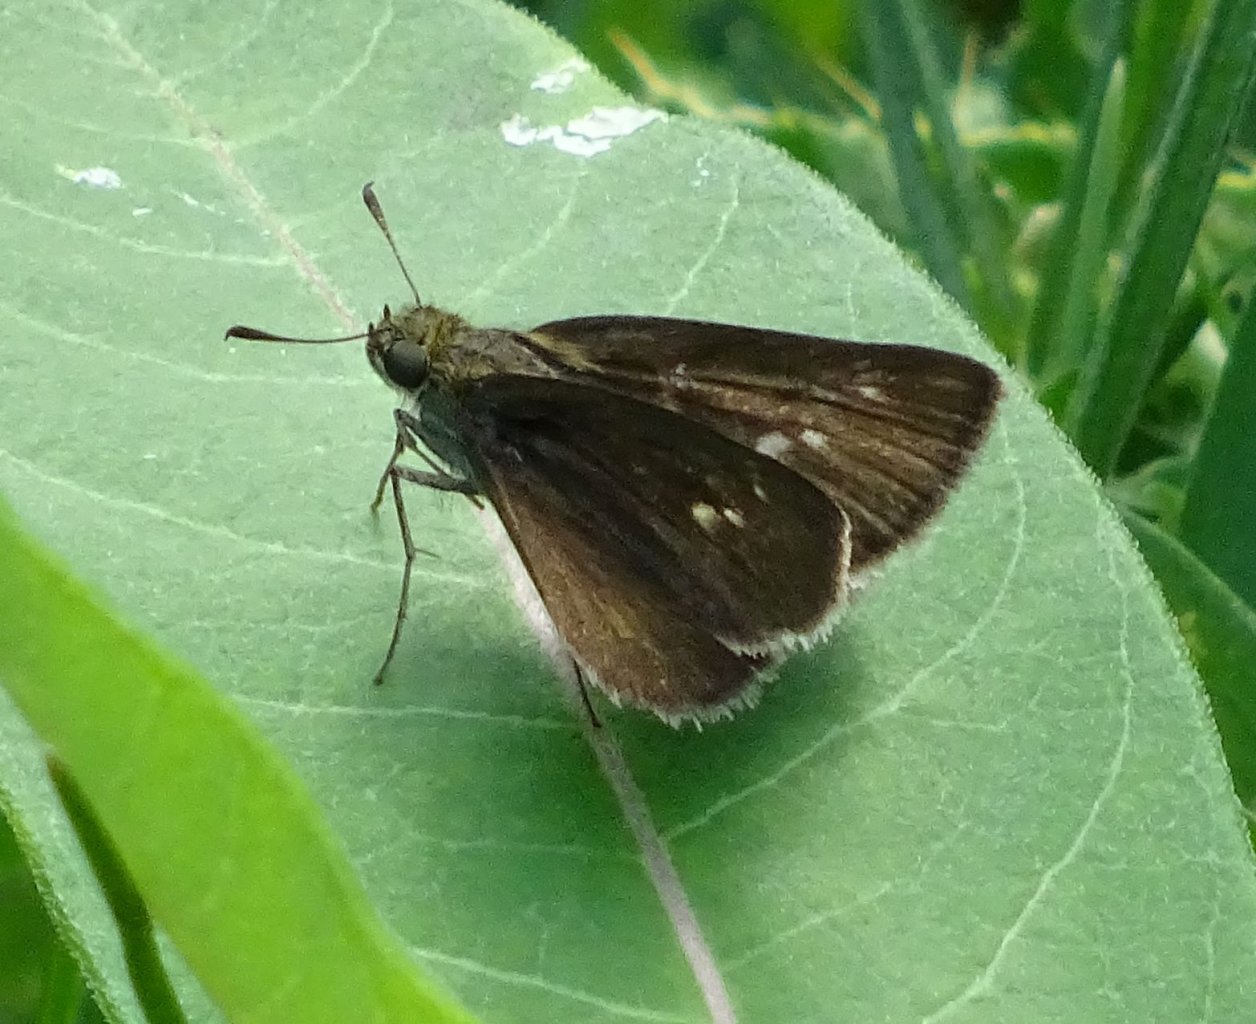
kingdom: Animalia
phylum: Arthropoda
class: Insecta
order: Lepidoptera
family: Hesperiidae
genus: Euphyes
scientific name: Euphyes vestris
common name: Dun Skipper
